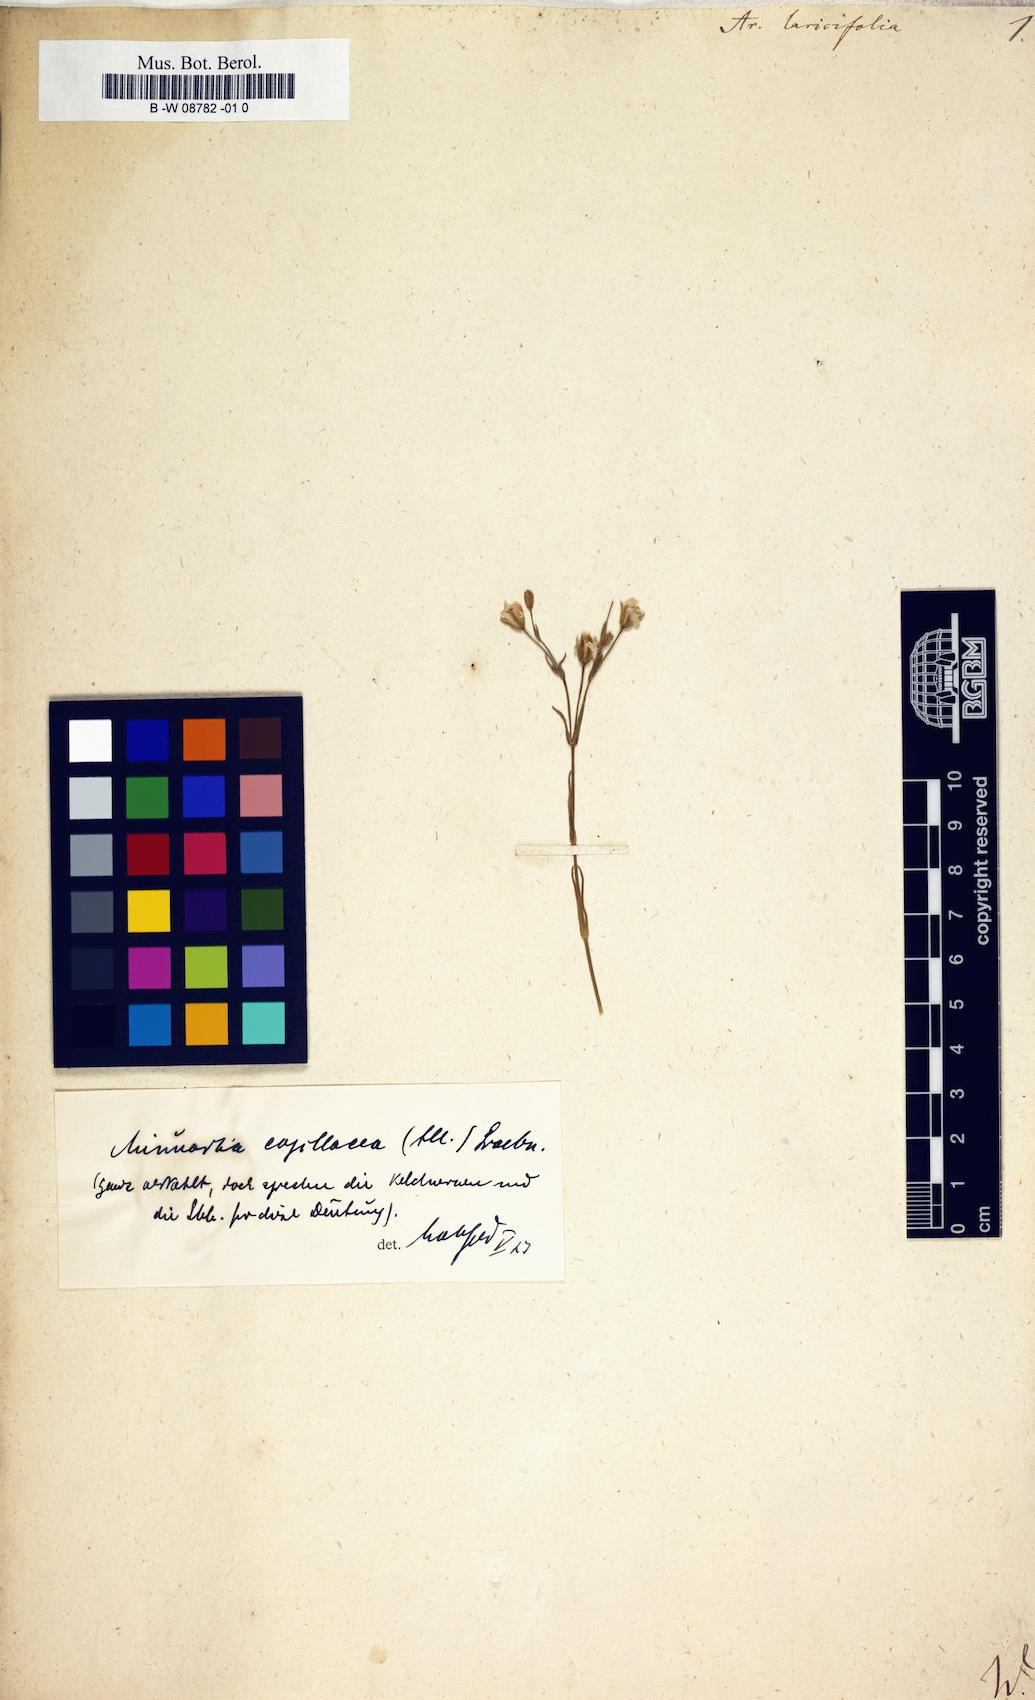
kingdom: Plantae
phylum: Tracheophyta
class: Magnoliopsida
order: Caryophyllales
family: Caryophyllaceae
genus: Cherleria
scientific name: Cherleria laricifolia
